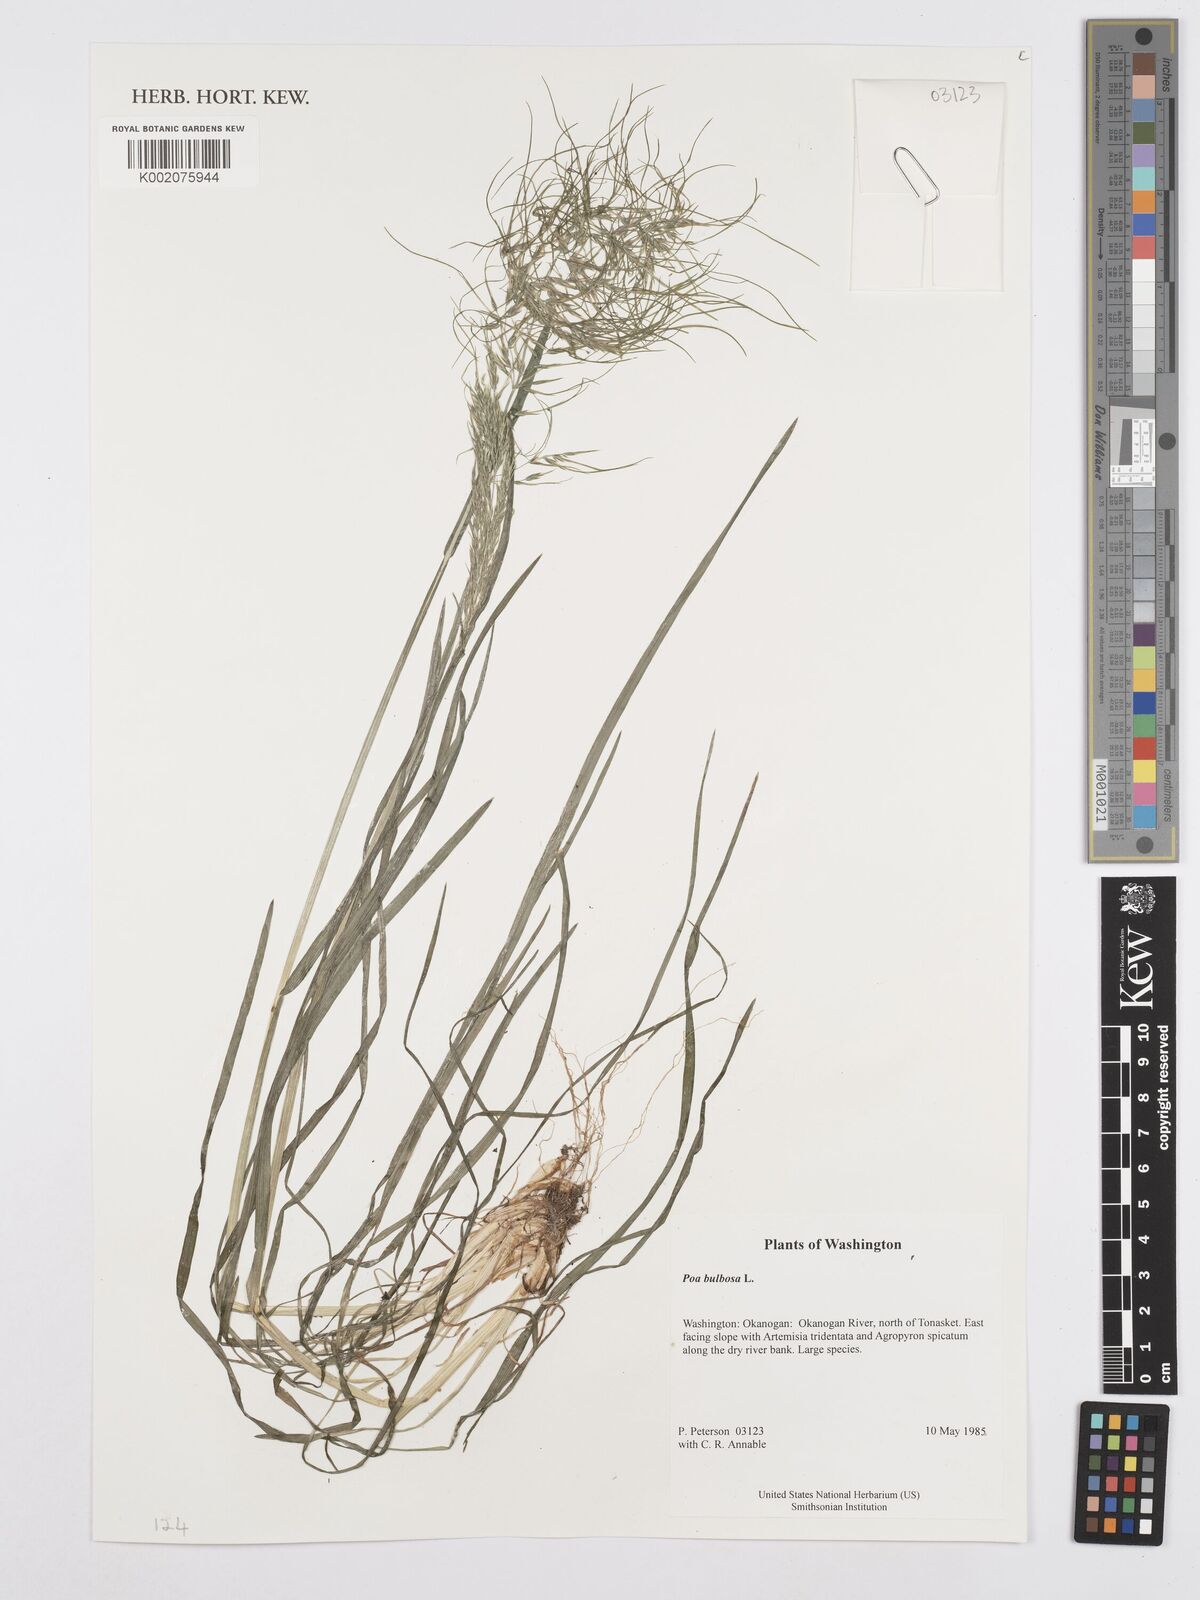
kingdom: Plantae
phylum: Tracheophyta
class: Liliopsida
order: Poales
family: Poaceae
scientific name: Poaceae
